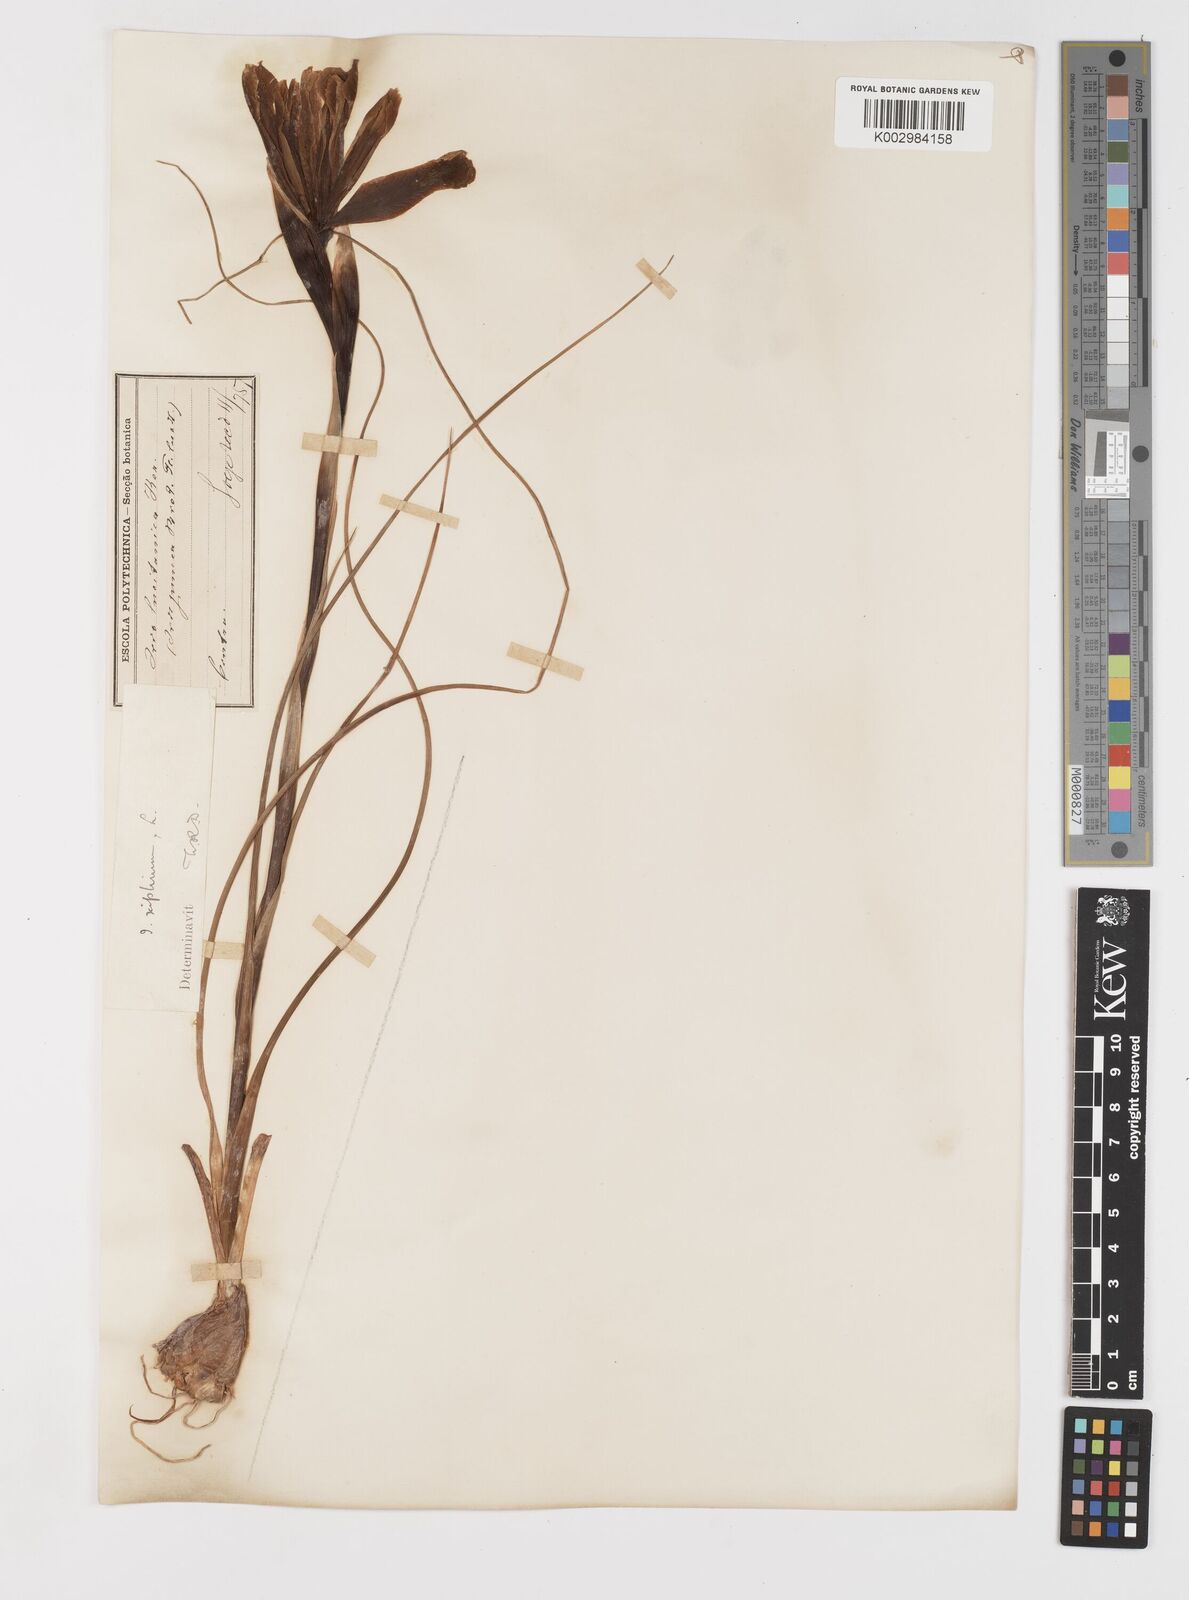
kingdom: Plantae
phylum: Tracheophyta
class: Liliopsida
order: Asparagales
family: Iridaceae
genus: Iris
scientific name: Iris xiphium
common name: Spanish iris
